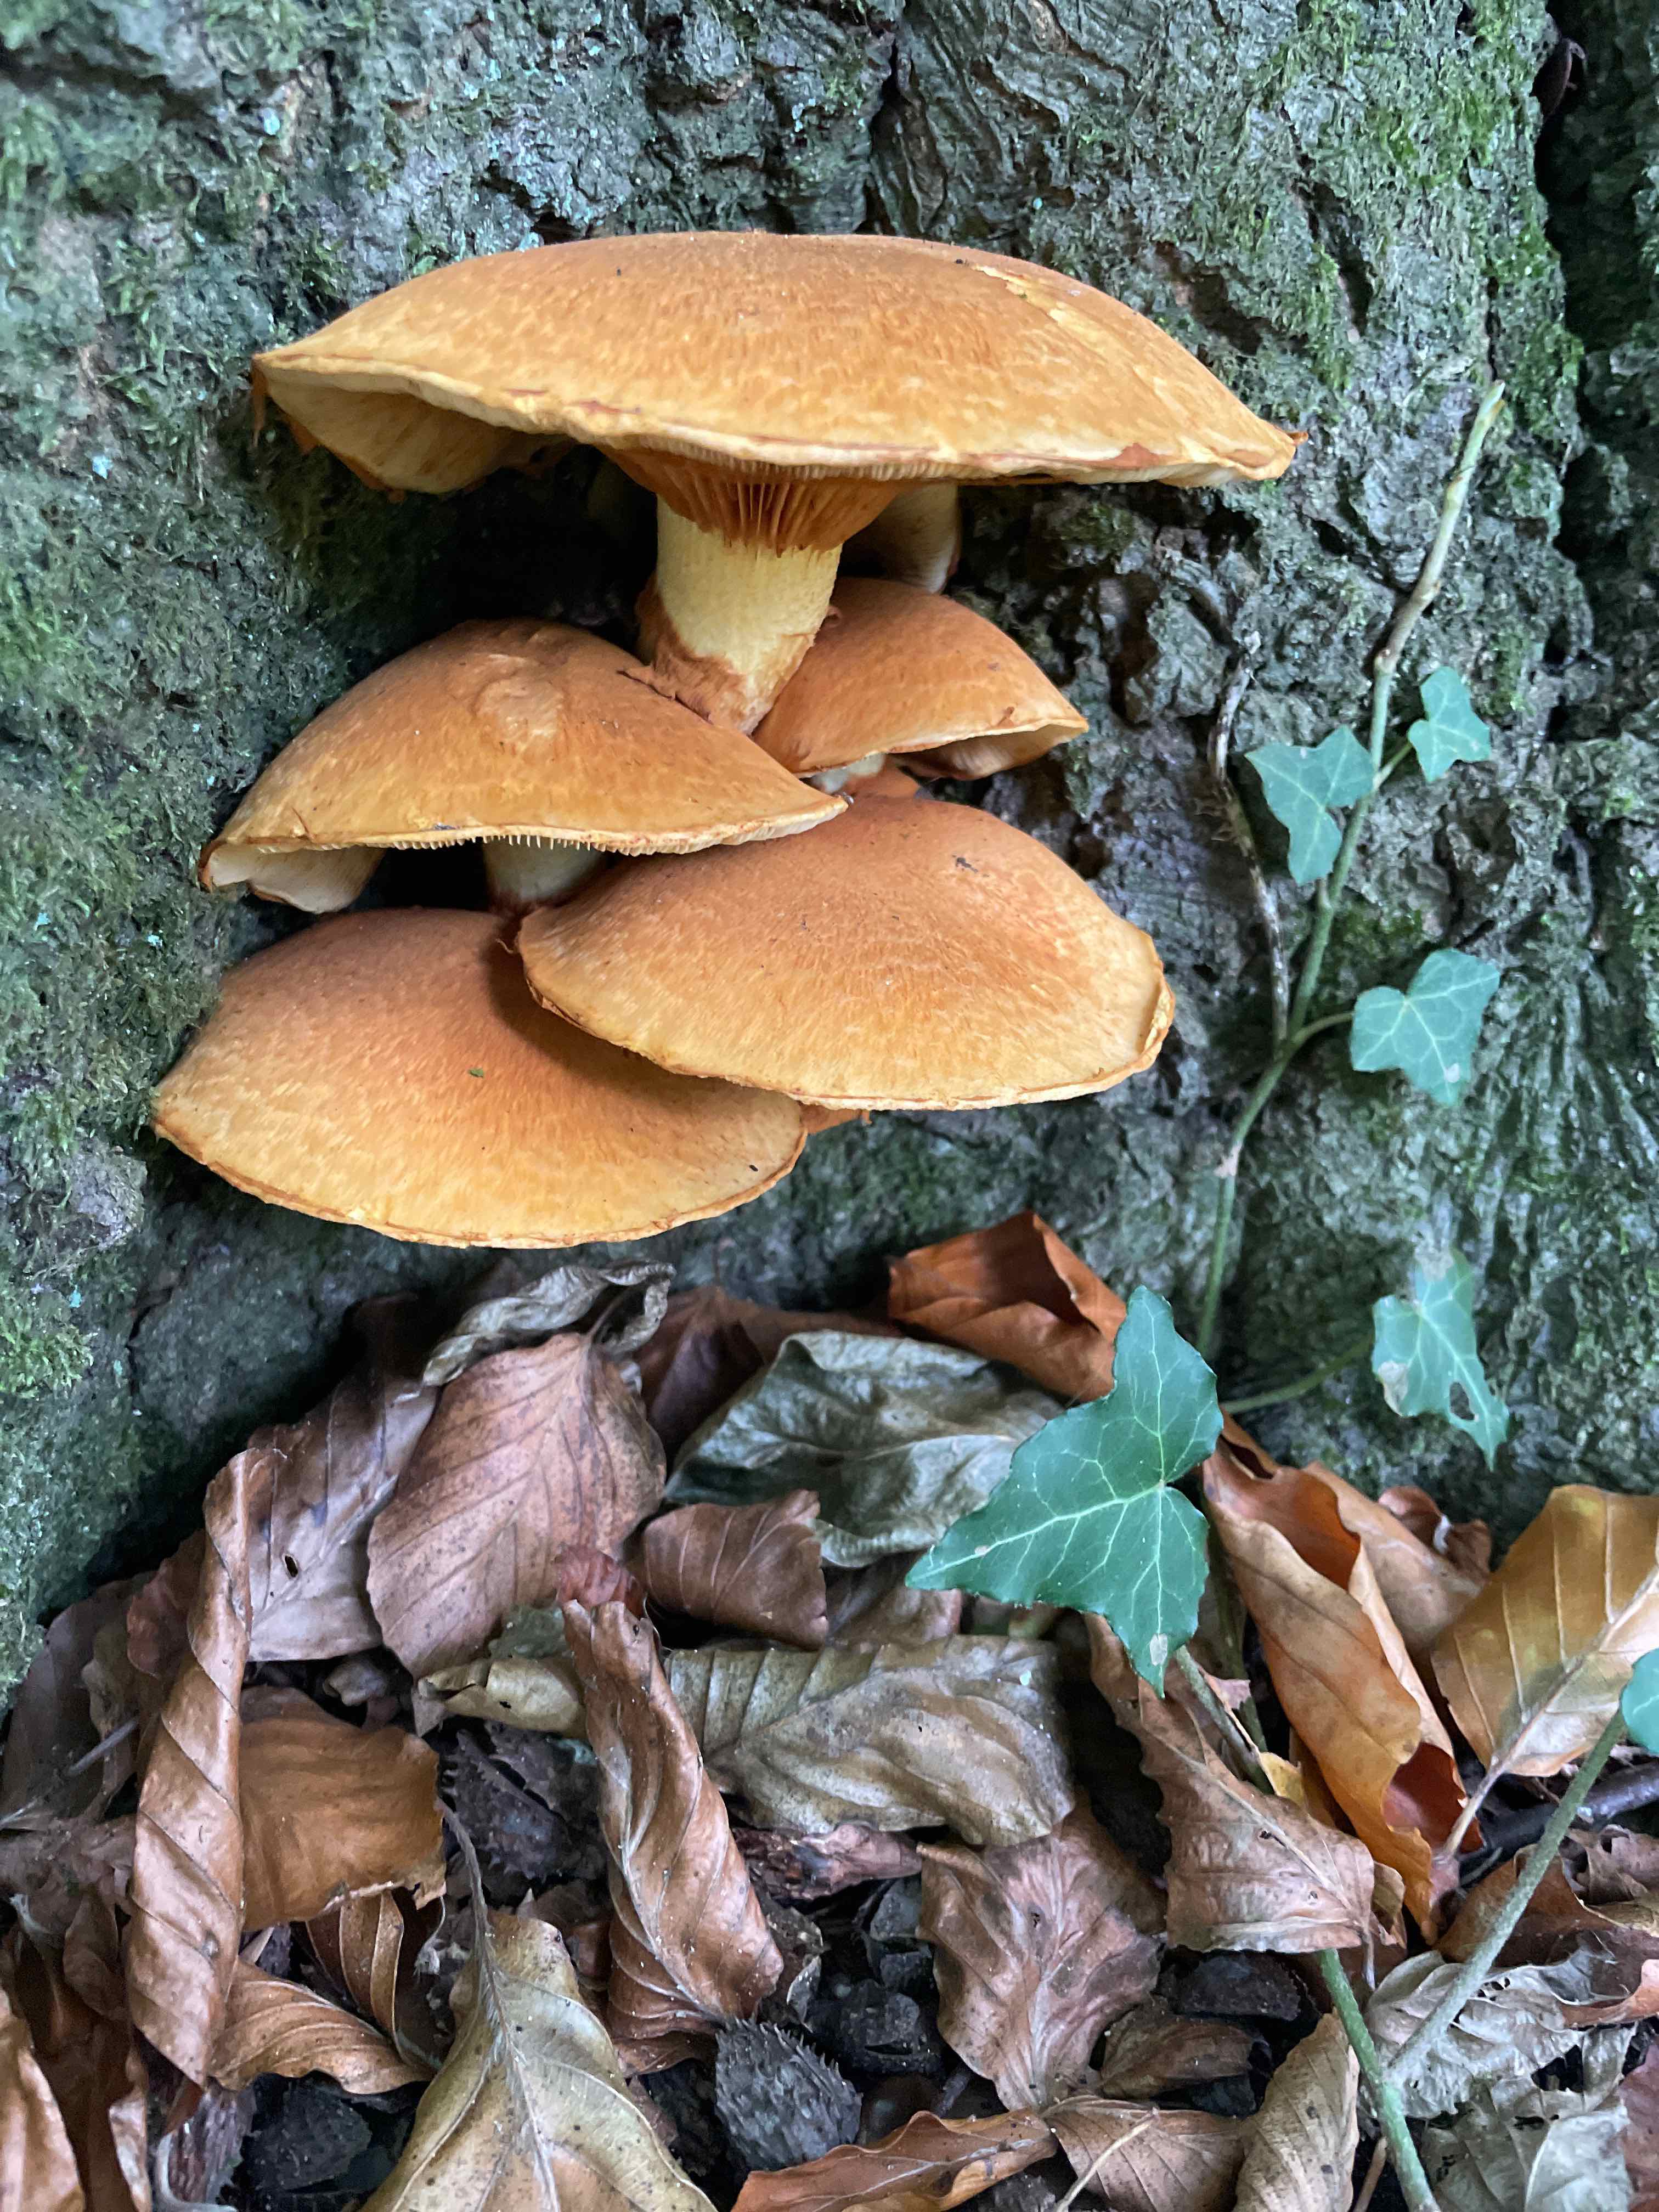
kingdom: Fungi
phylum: Basidiomycota
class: Agaricomycetes
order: Agaricales
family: Hymenogastraceae
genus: Gymnopilus
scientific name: Gymnopilus spectabilis
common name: fibret flammehat
